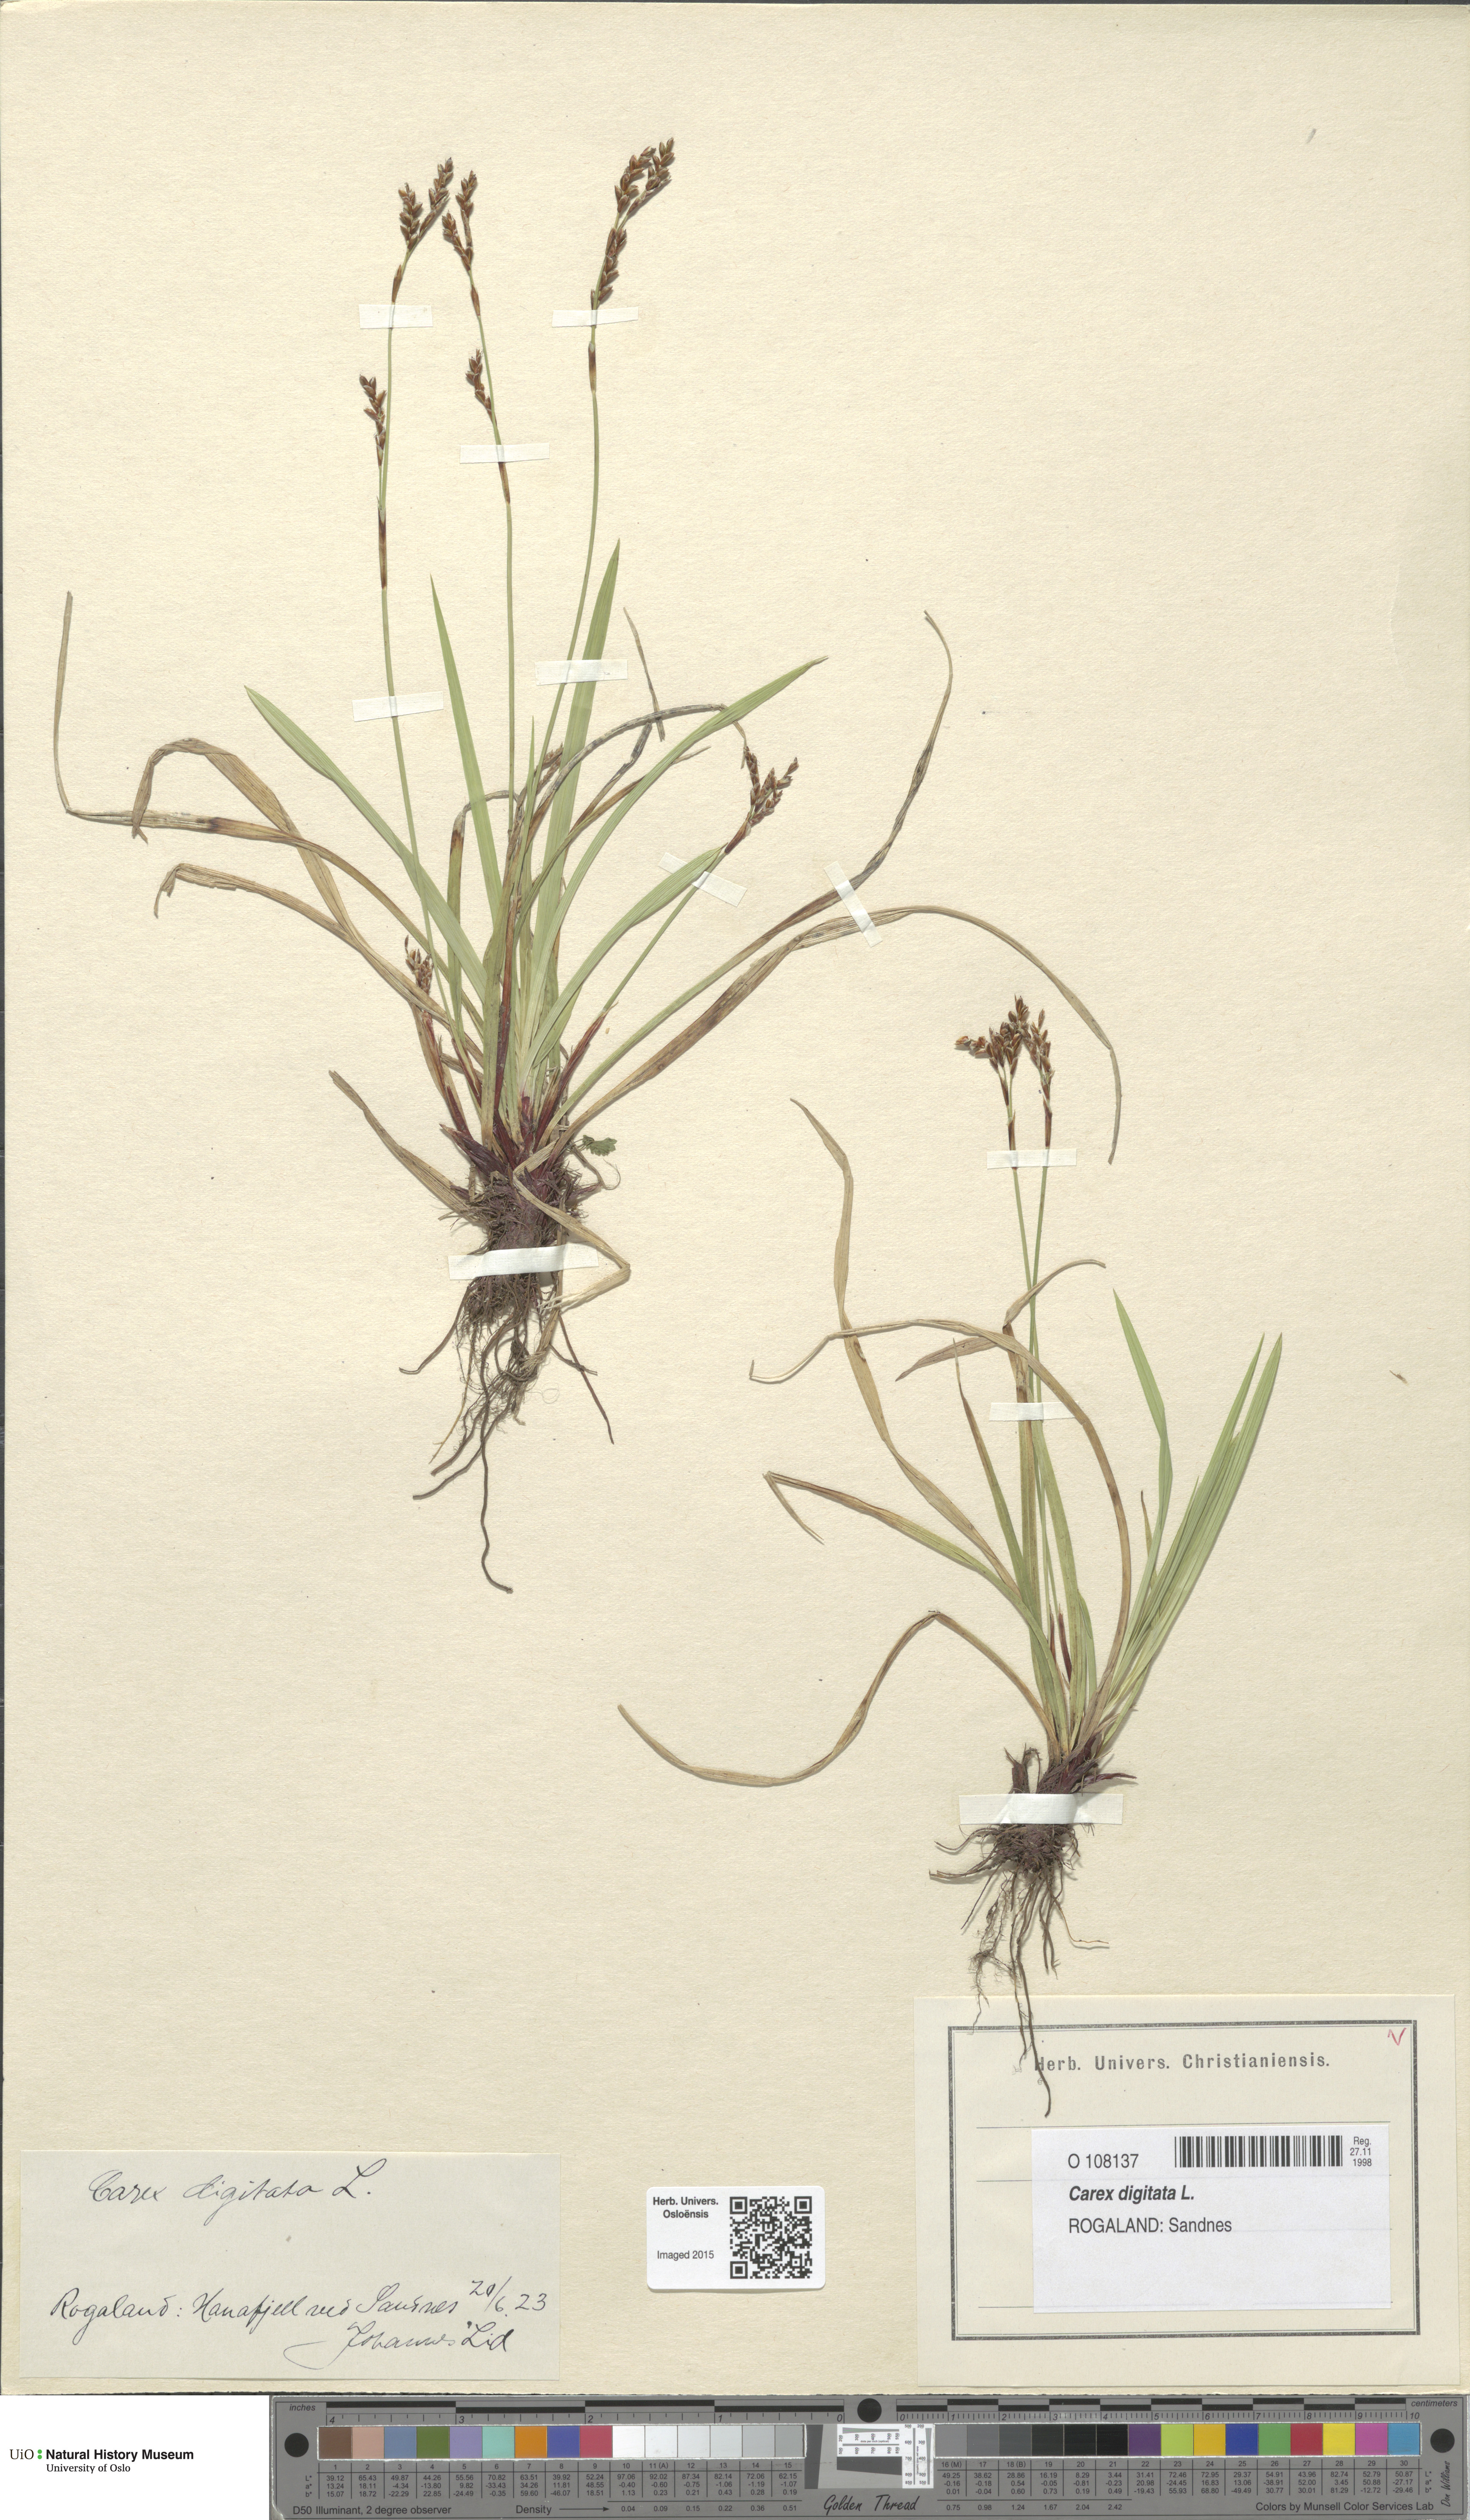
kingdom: Plantae
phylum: Tracheophyta
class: Liliopsida
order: Poales
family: Cyperaceae
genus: Carex
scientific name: Carex digitata
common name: Fingered sedge
